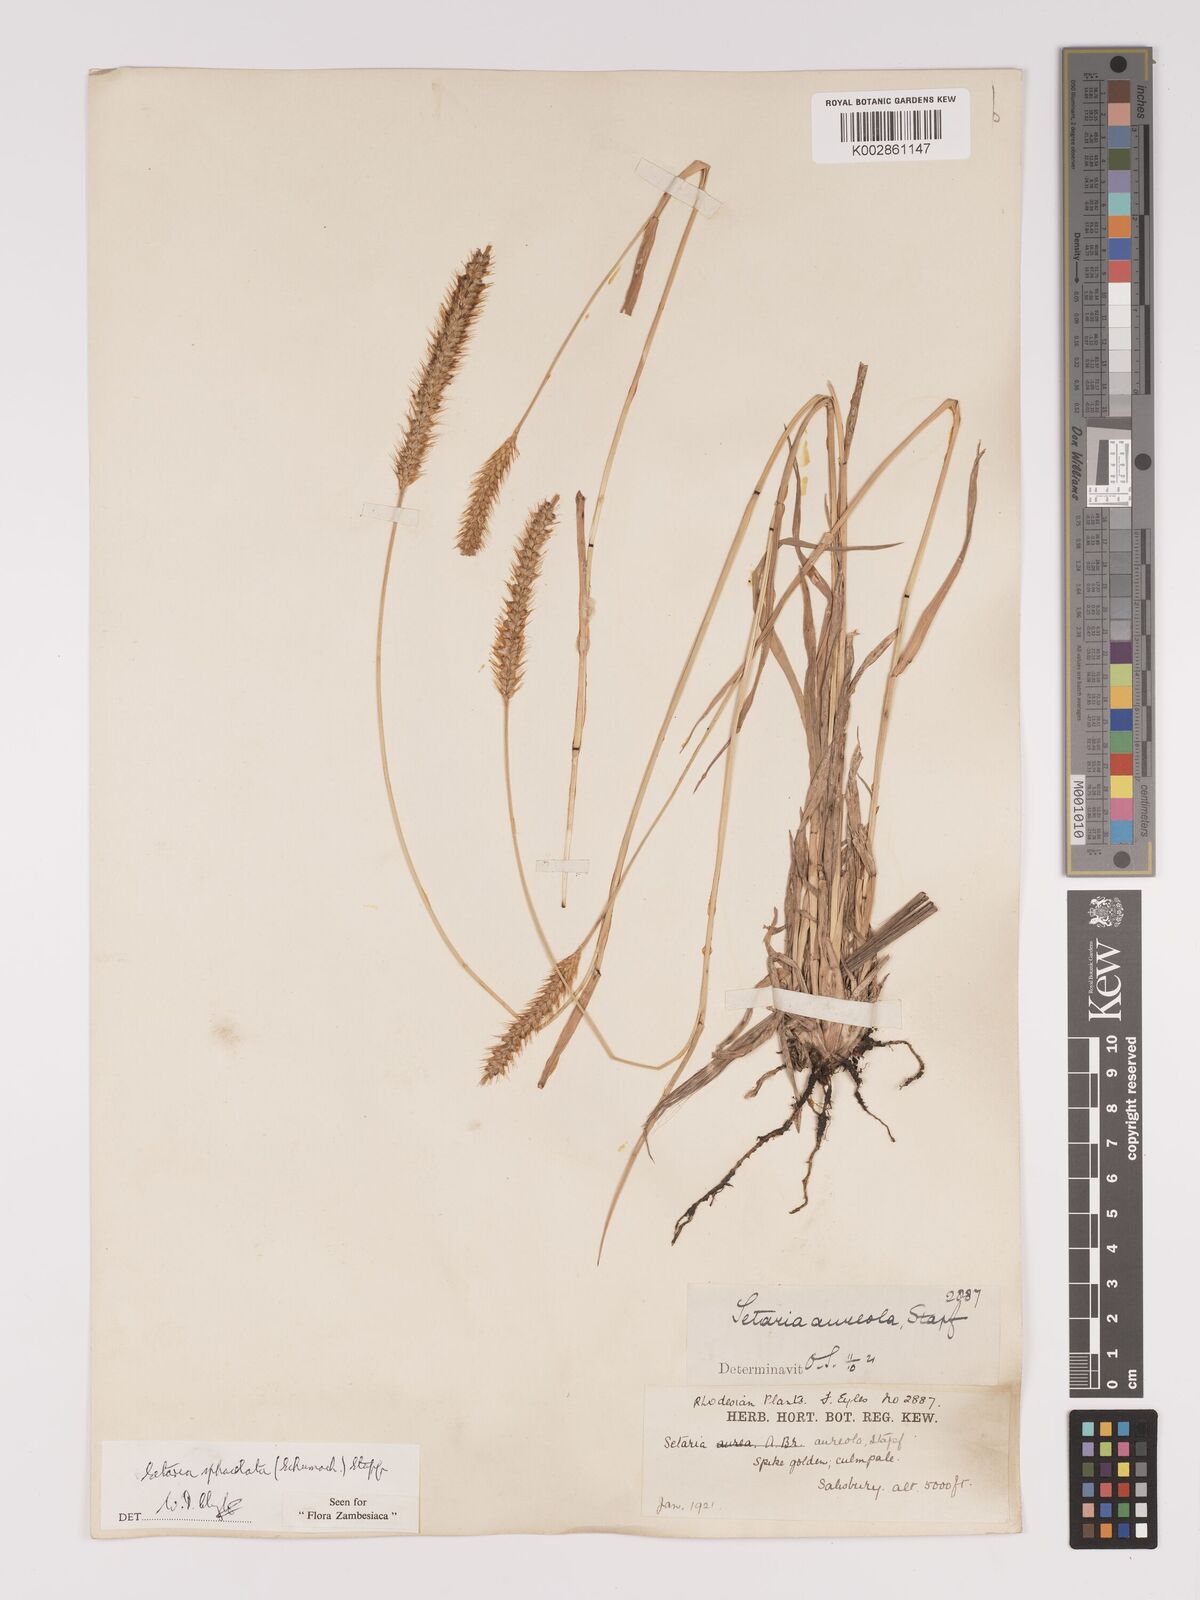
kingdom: Plantae
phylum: Tracheophyta
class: Liliopsida
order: Poales
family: Poaceae
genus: Setaria
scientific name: Setaria sphacelata
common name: African bristlegrass
